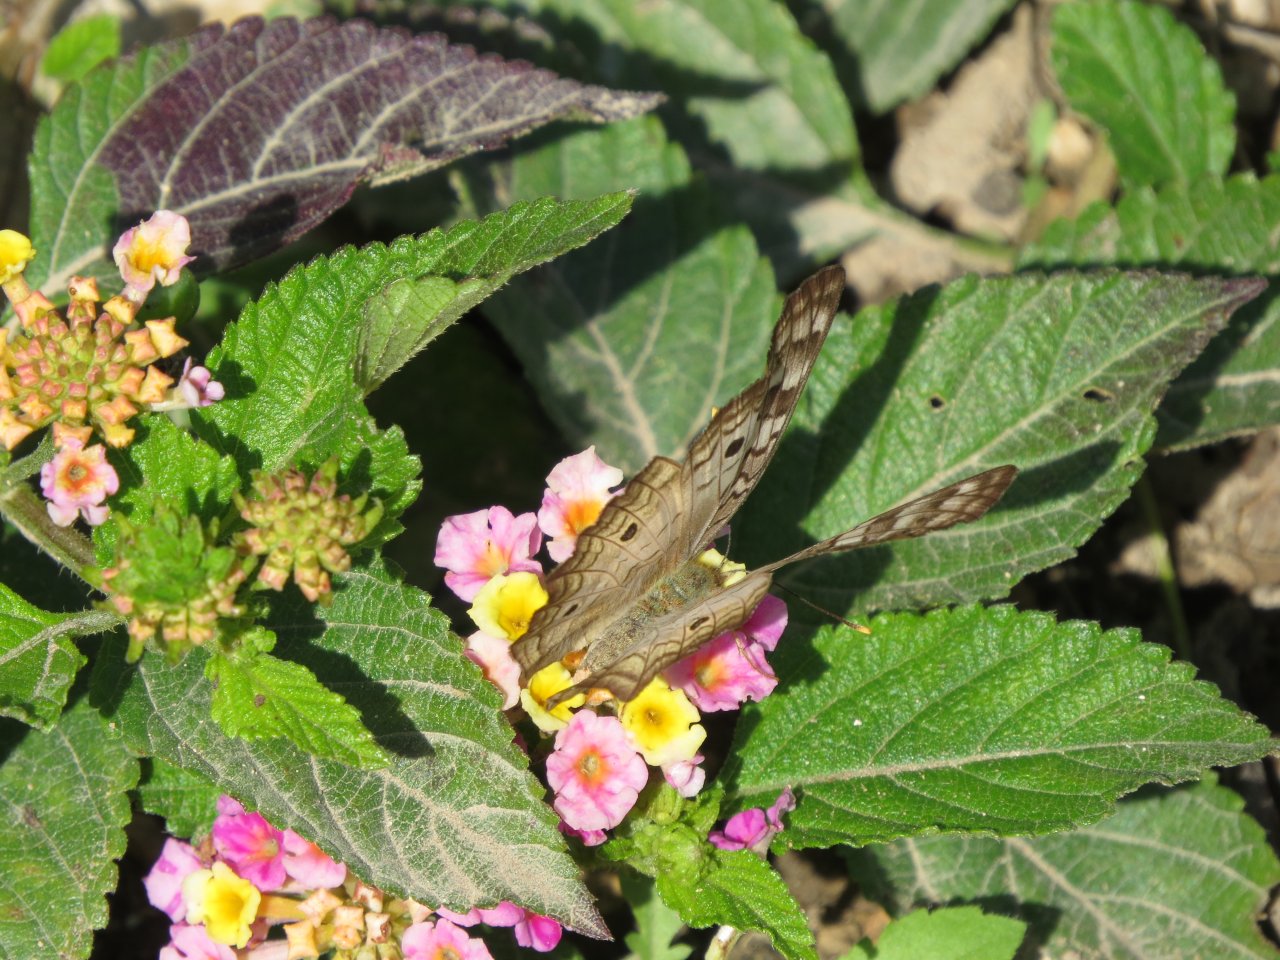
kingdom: Animalia
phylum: Arthropoda
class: Insecta
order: Lepidoptera
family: Nymphalidae
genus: Anartia
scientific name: Anartia jatrophae
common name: White Peacock
